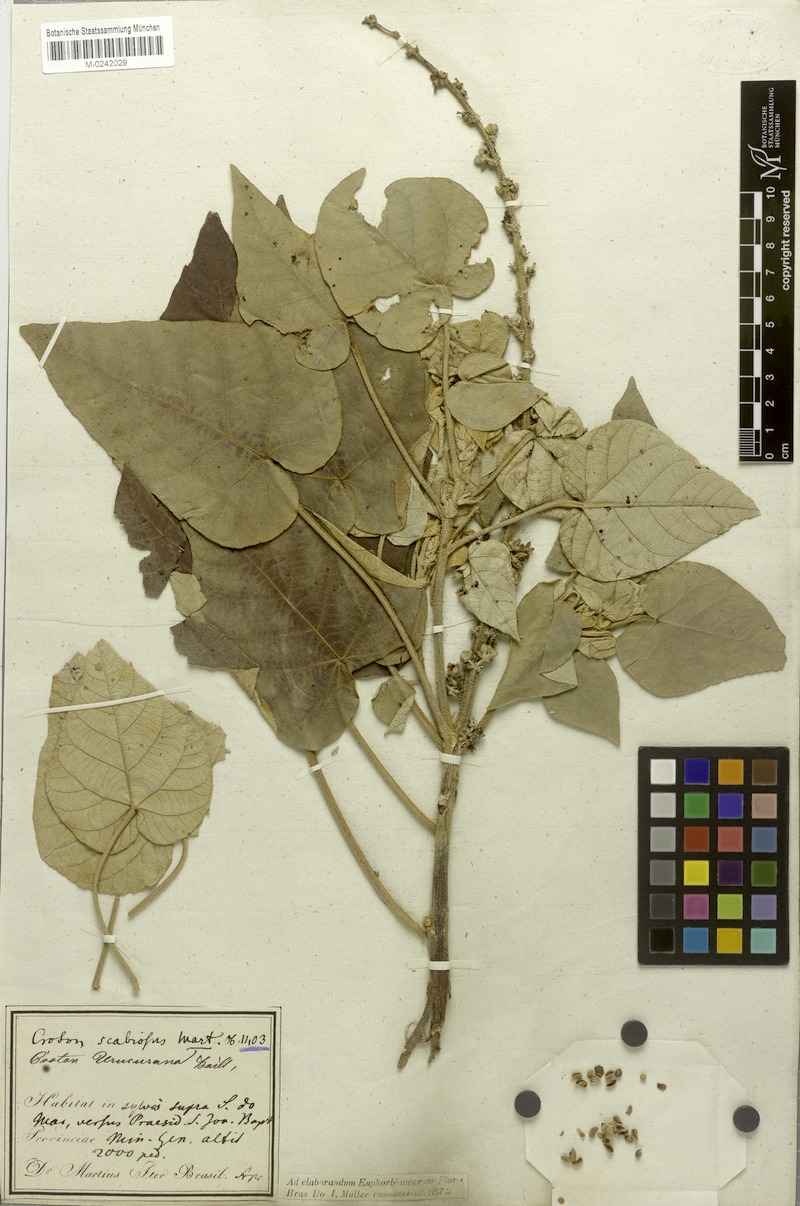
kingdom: Plantae
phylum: Tracheophyta
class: Magnoliopsida
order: Malpighiales
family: Euphorbiaceae
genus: Croton
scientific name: Croton urucurana
